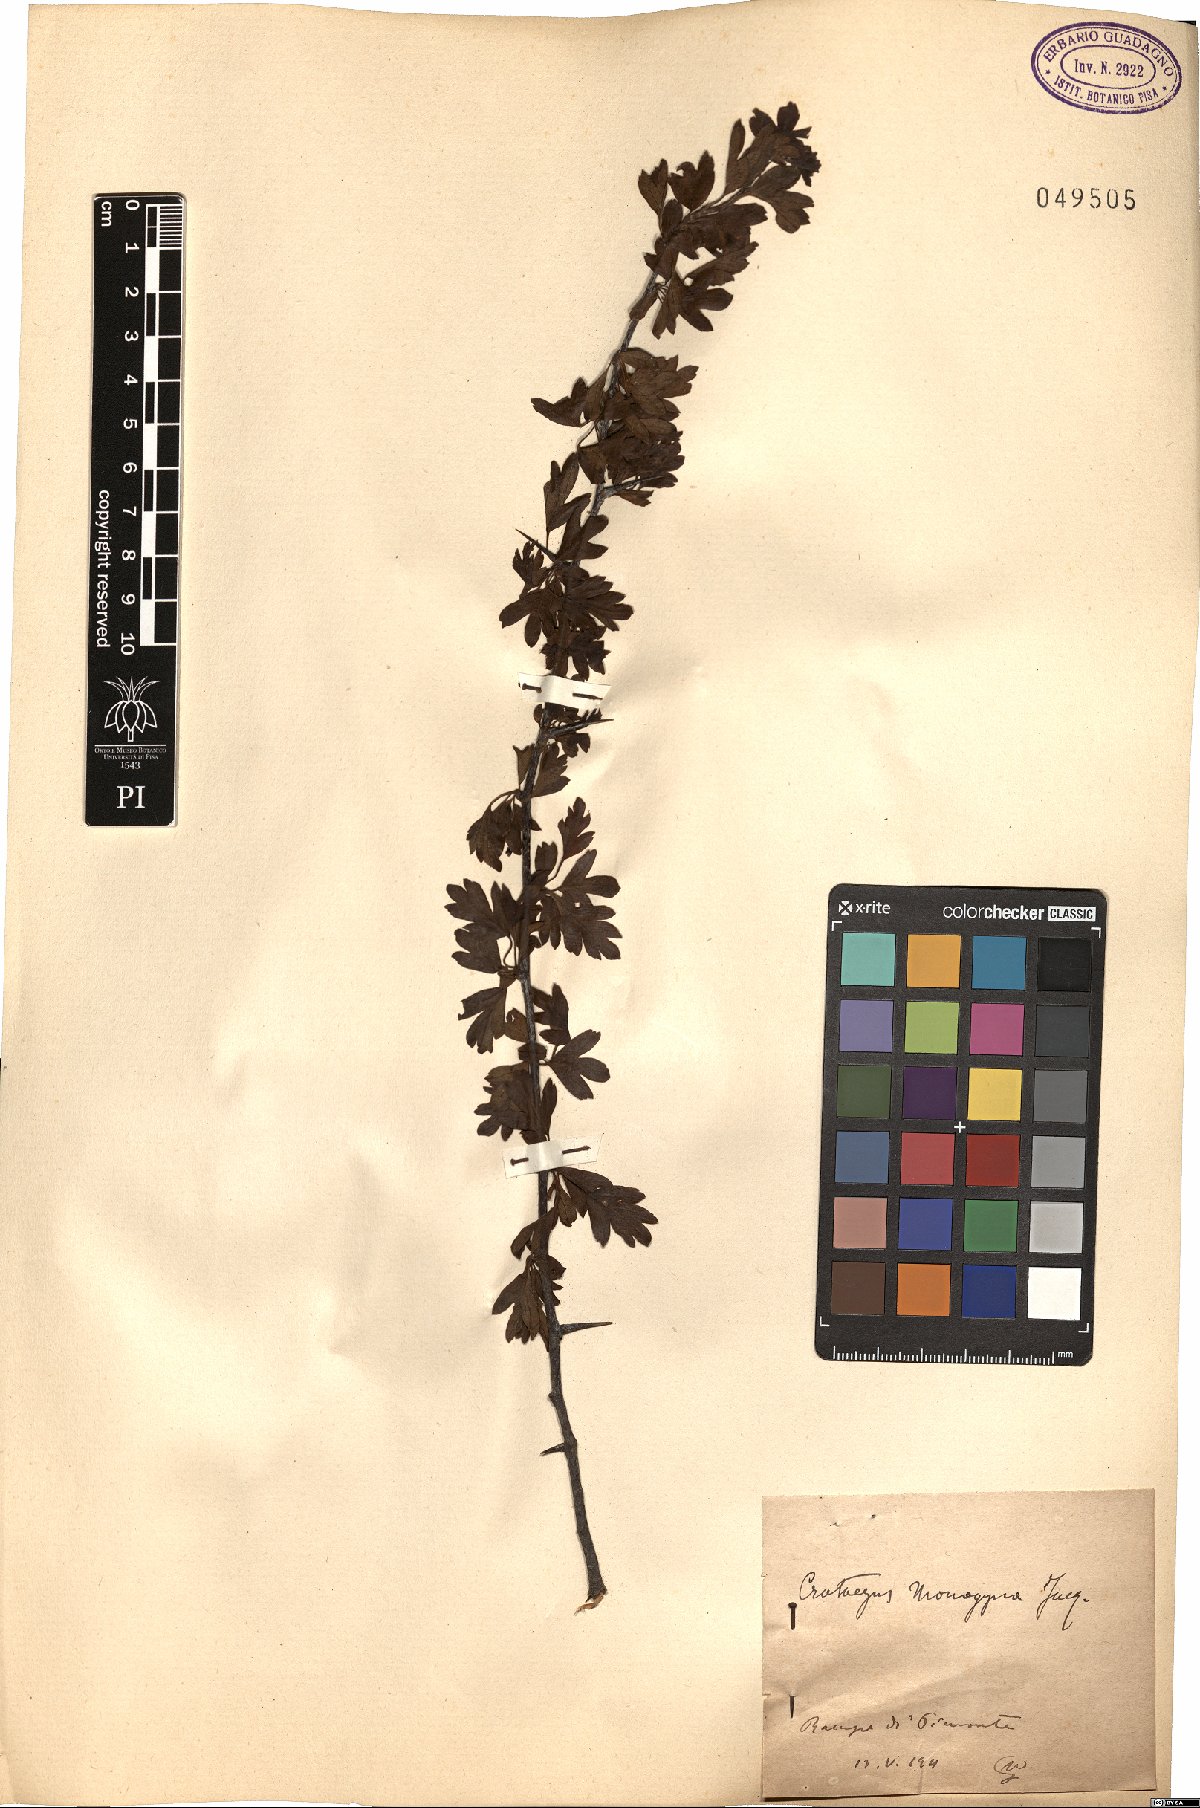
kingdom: Plantae
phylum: Tracheophyta
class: Magnoliopsida
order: Rosales
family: Rosaceae
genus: Crataegus
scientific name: Crataegus monogyna
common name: Hawthorn
